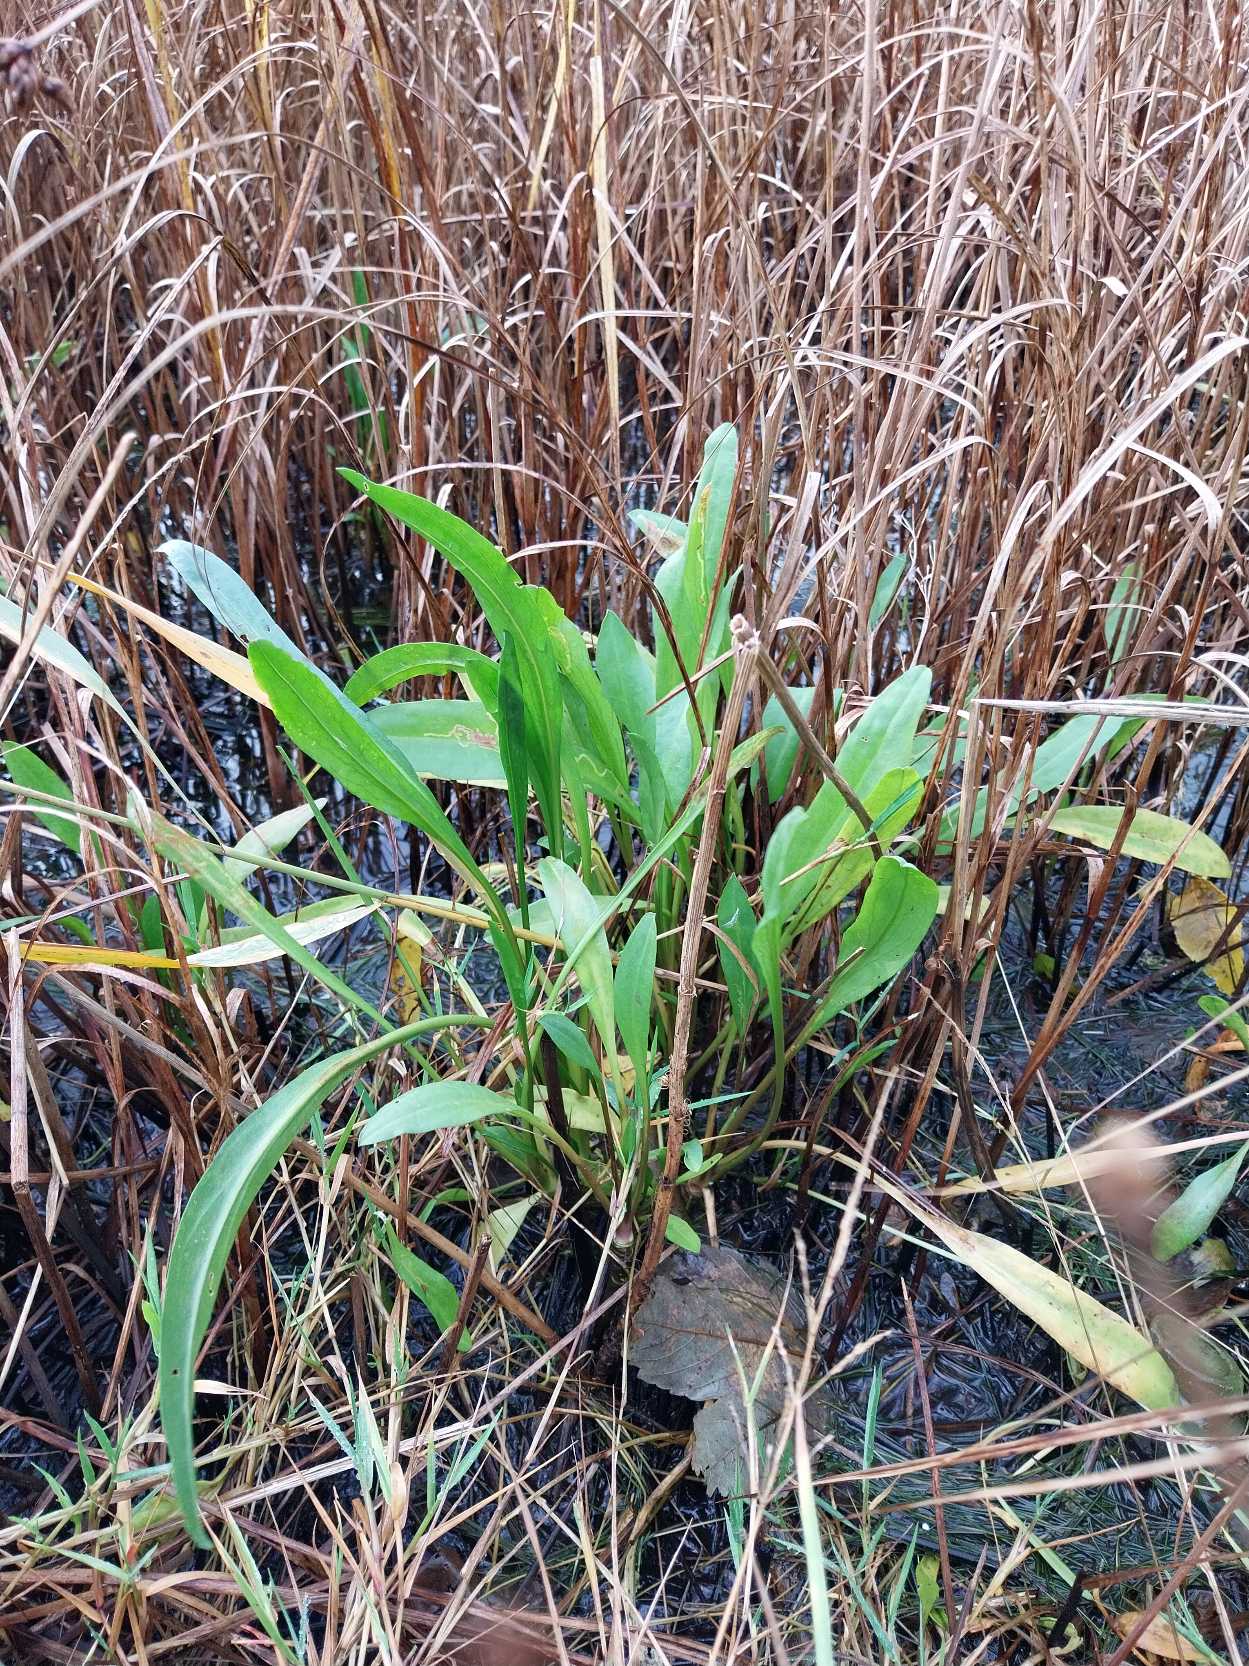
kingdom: Plantae
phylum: Tracheophyta
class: Magnoliopsida
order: Asterales
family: Asteraceae
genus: Tripolium
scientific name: Tripolium pannonicum
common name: Strandasters
